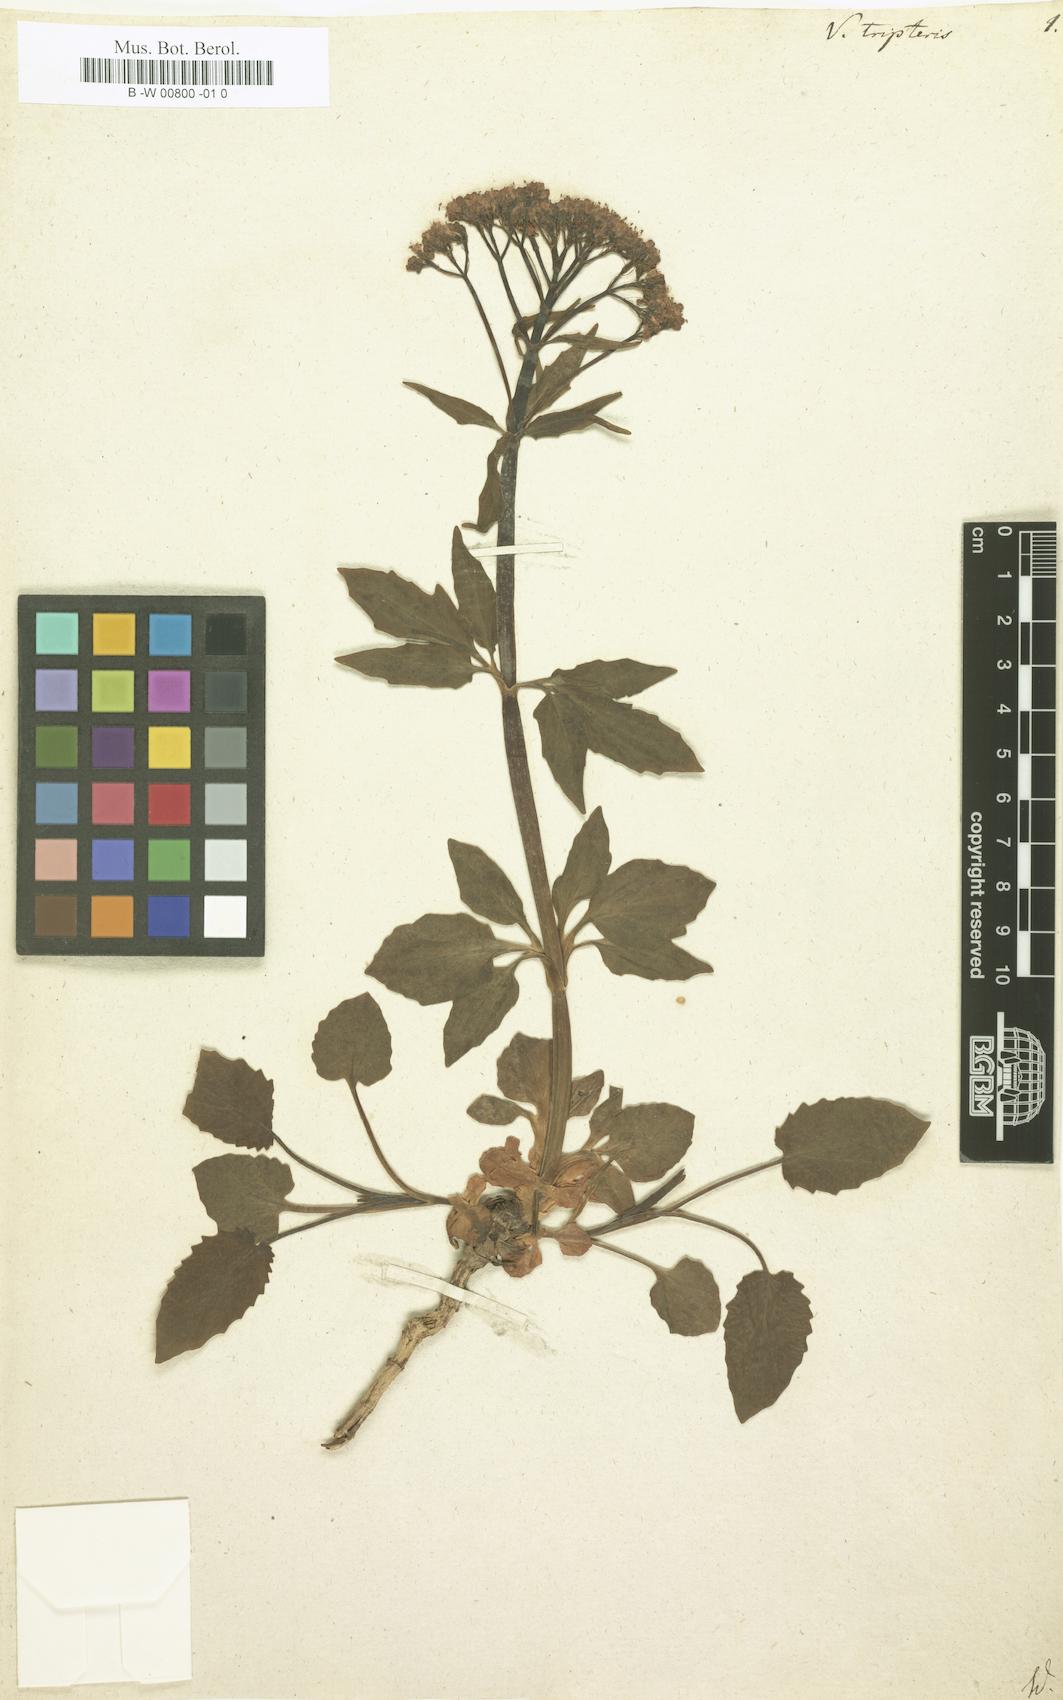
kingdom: Plantae
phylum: Tracheophyta
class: Magnoliopsida
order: Dipsacales
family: Caprifoliaceae
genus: Valeriana
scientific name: Valeriana tripteris
